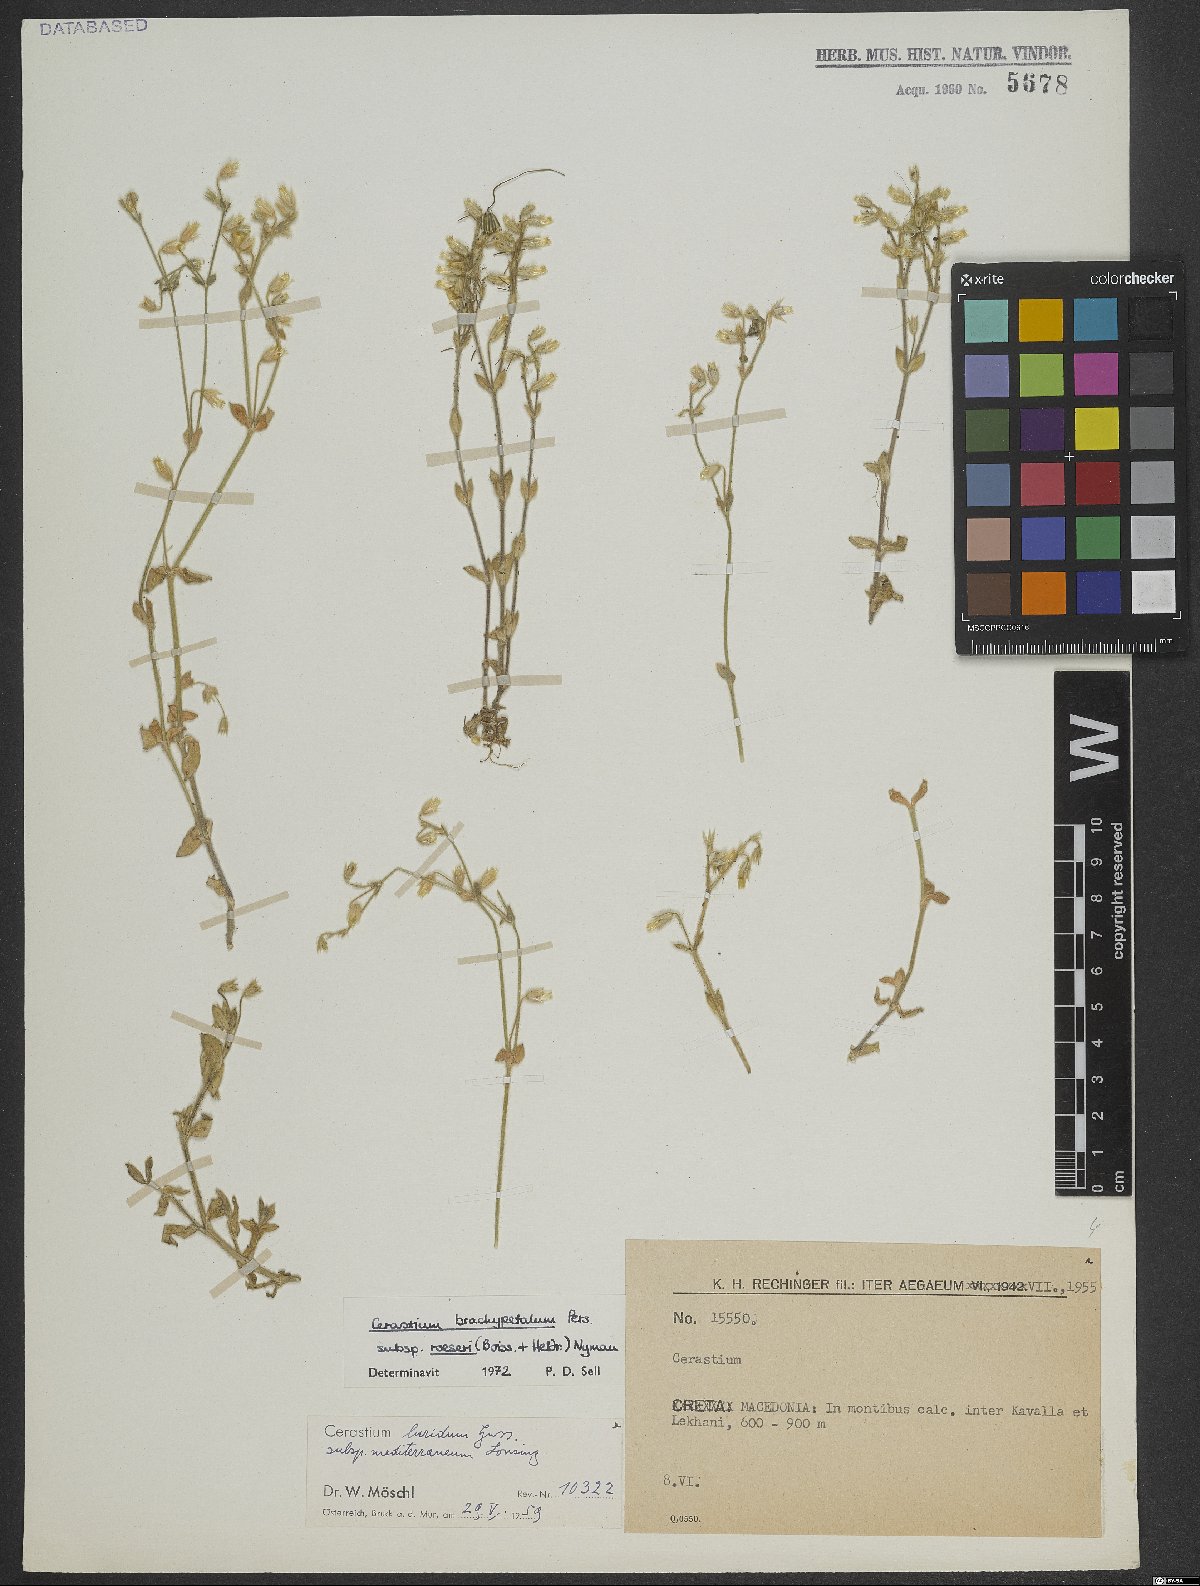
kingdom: Plantae
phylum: Tracheophyta
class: Magnoliopsida
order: Caryophyllales
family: Caryophyllaceae
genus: Cerastium
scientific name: Cerastium brachypetalum
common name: Grey mouse-ear
